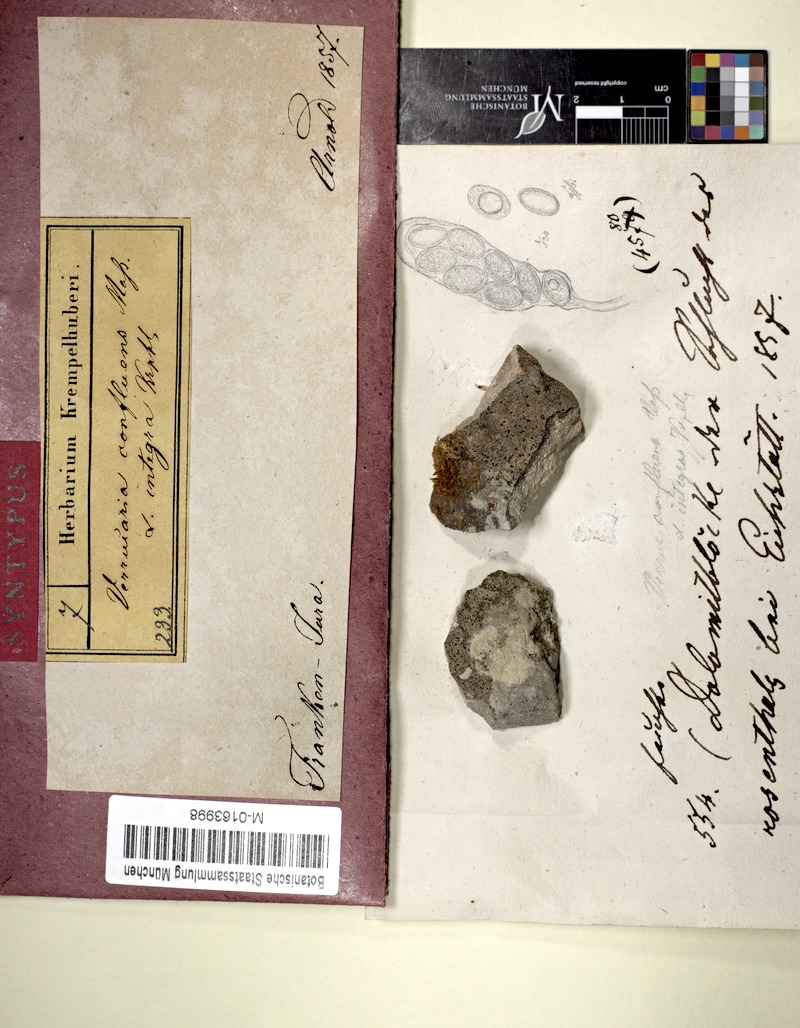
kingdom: Fungi
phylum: Ascomycota
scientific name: Ascomycota
